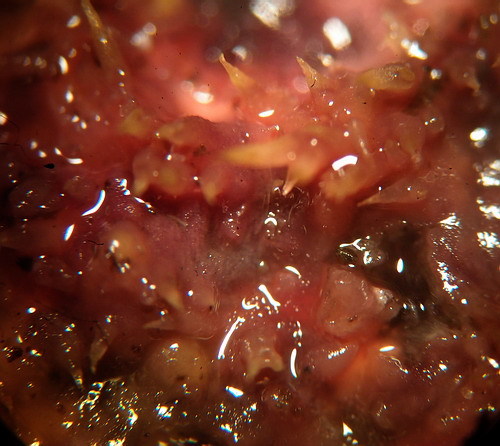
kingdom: Fungi
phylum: Basidiomycota
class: Agaricomycetes
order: Polyporales
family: Meruliaceae
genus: Mycoacia
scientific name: Mycoacia uda
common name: citrongul vokspig
